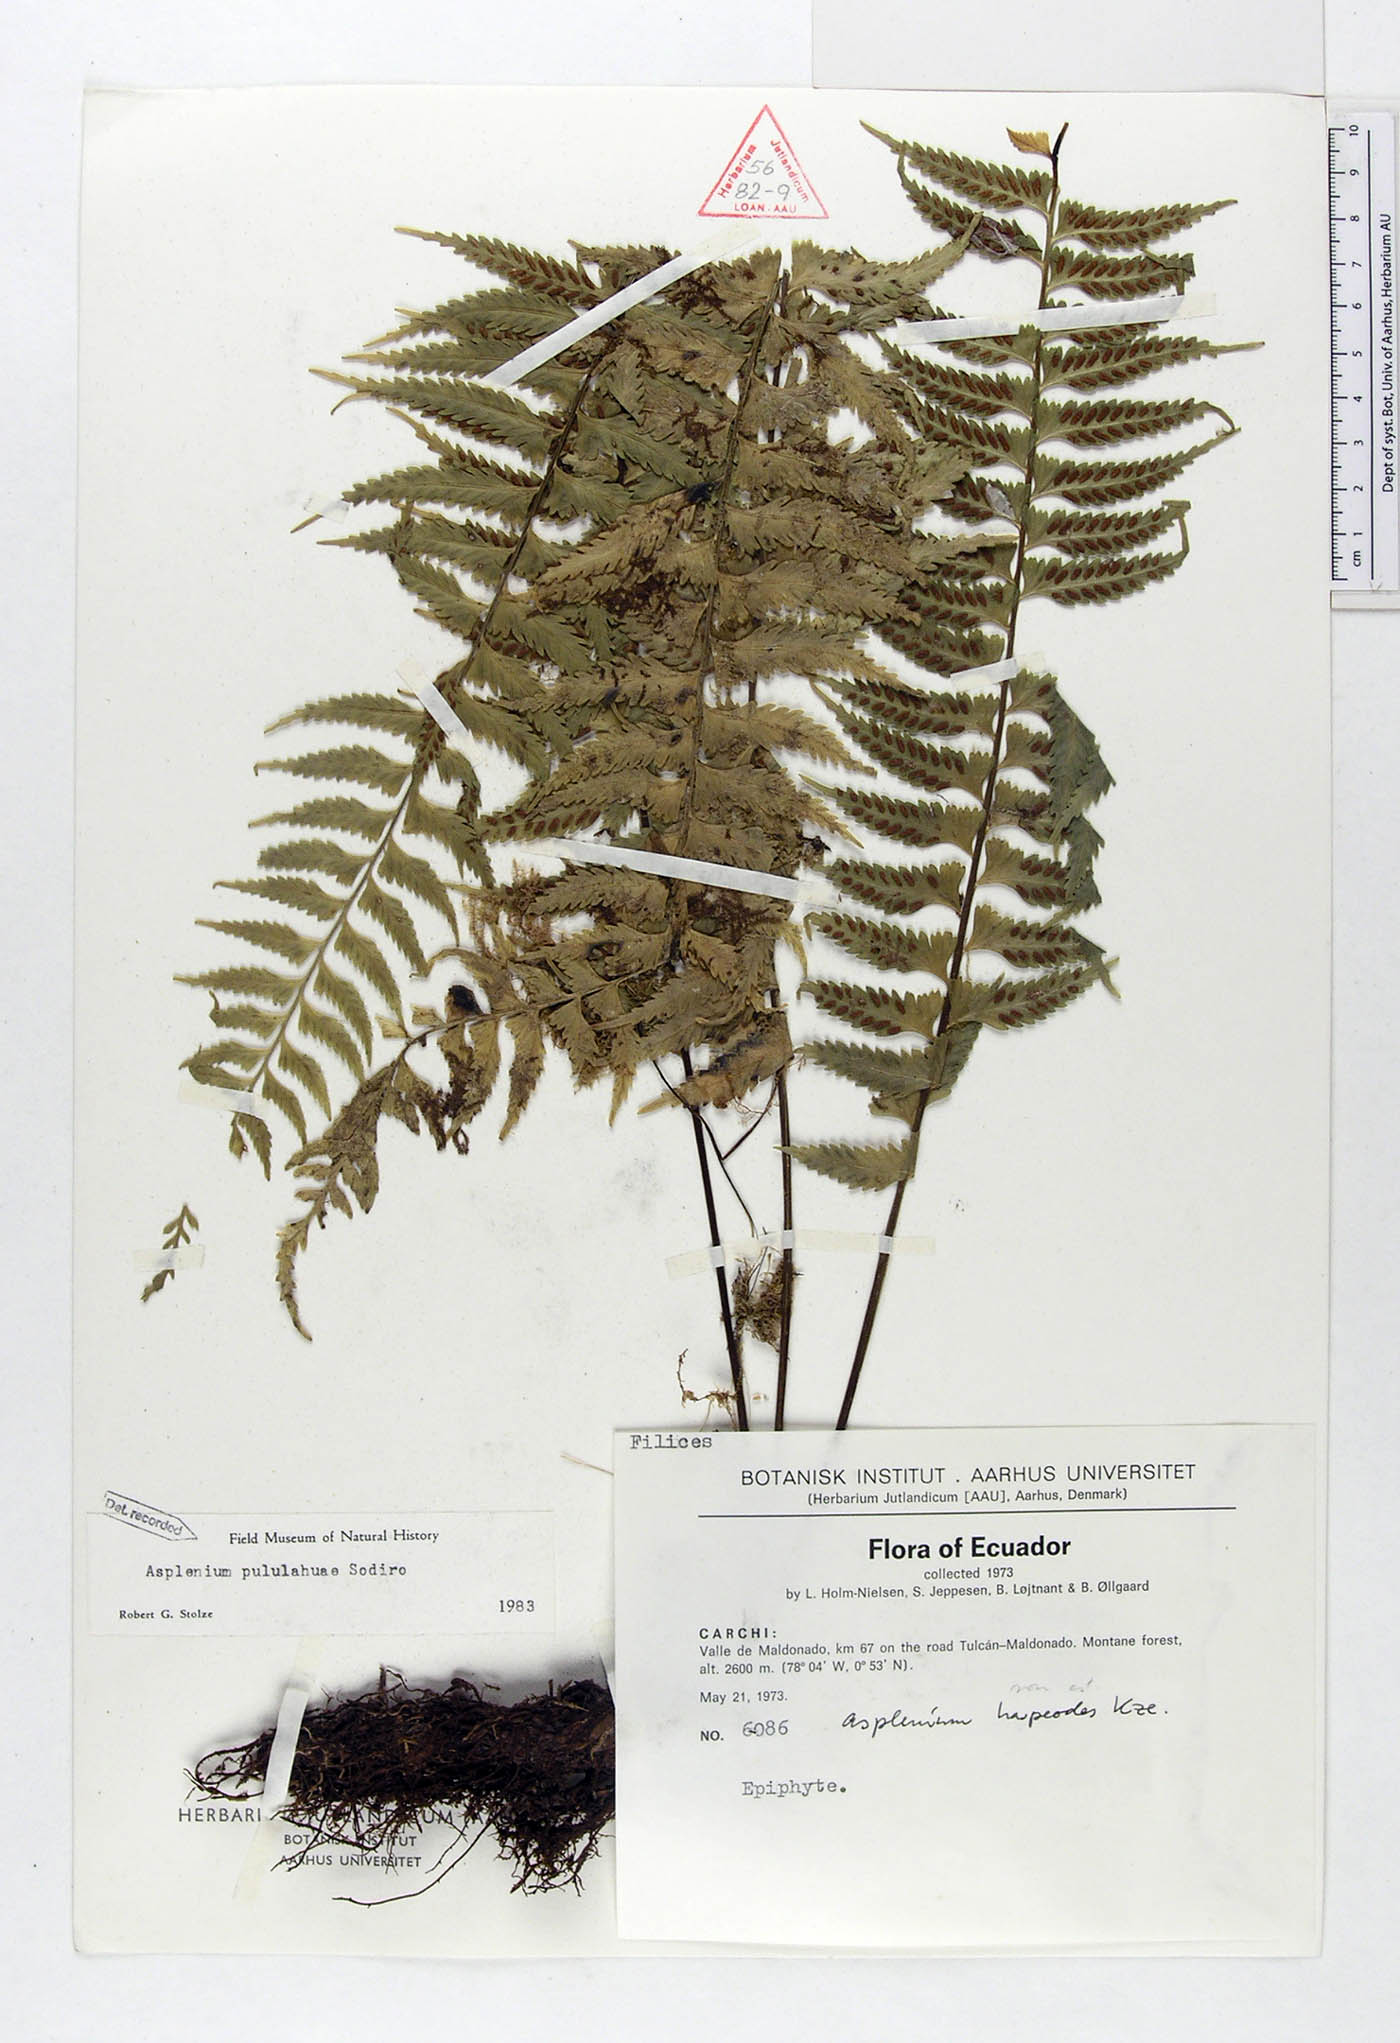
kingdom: Plantae
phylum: Tracheophyta
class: Polypodiopsida
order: Polypodiales
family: Aspleniaceae
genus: Asplenium
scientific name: Asplenium pululahuae
